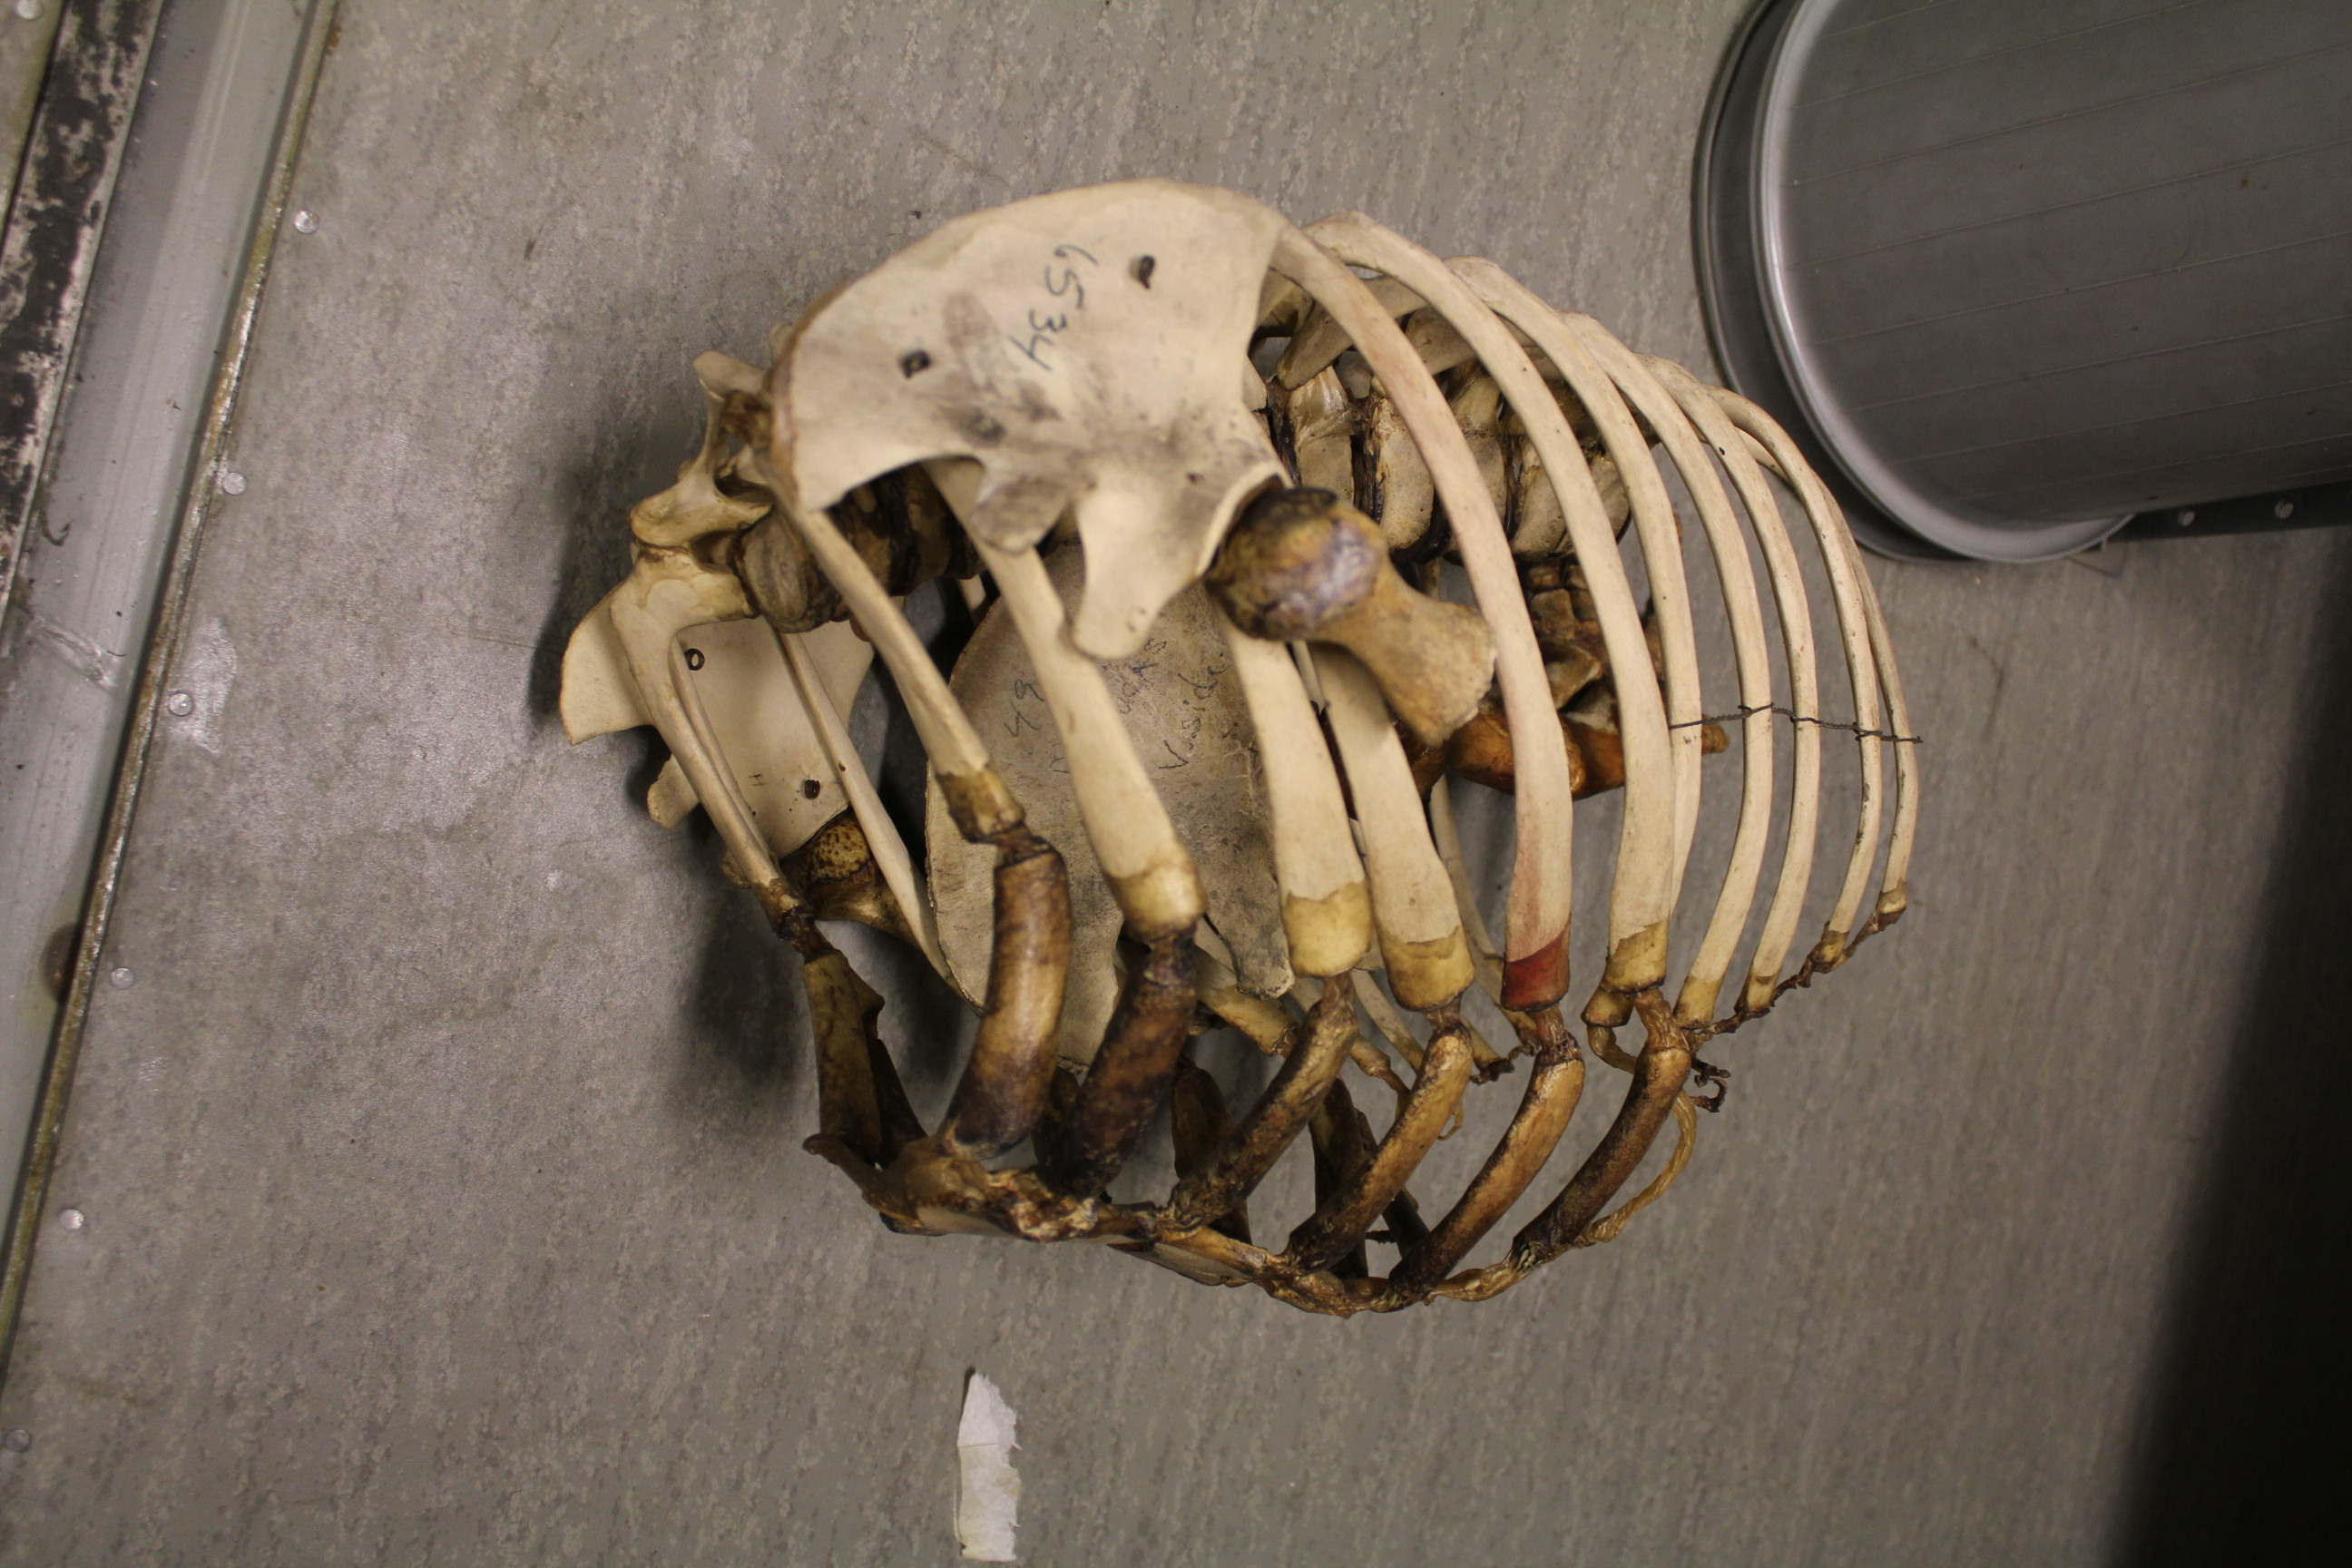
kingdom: Animalia
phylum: Chordata
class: Mammalia
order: Cetacea
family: Monodontidae
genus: Delphinapterus
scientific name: Delphinapterus leucas
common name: Beluga
